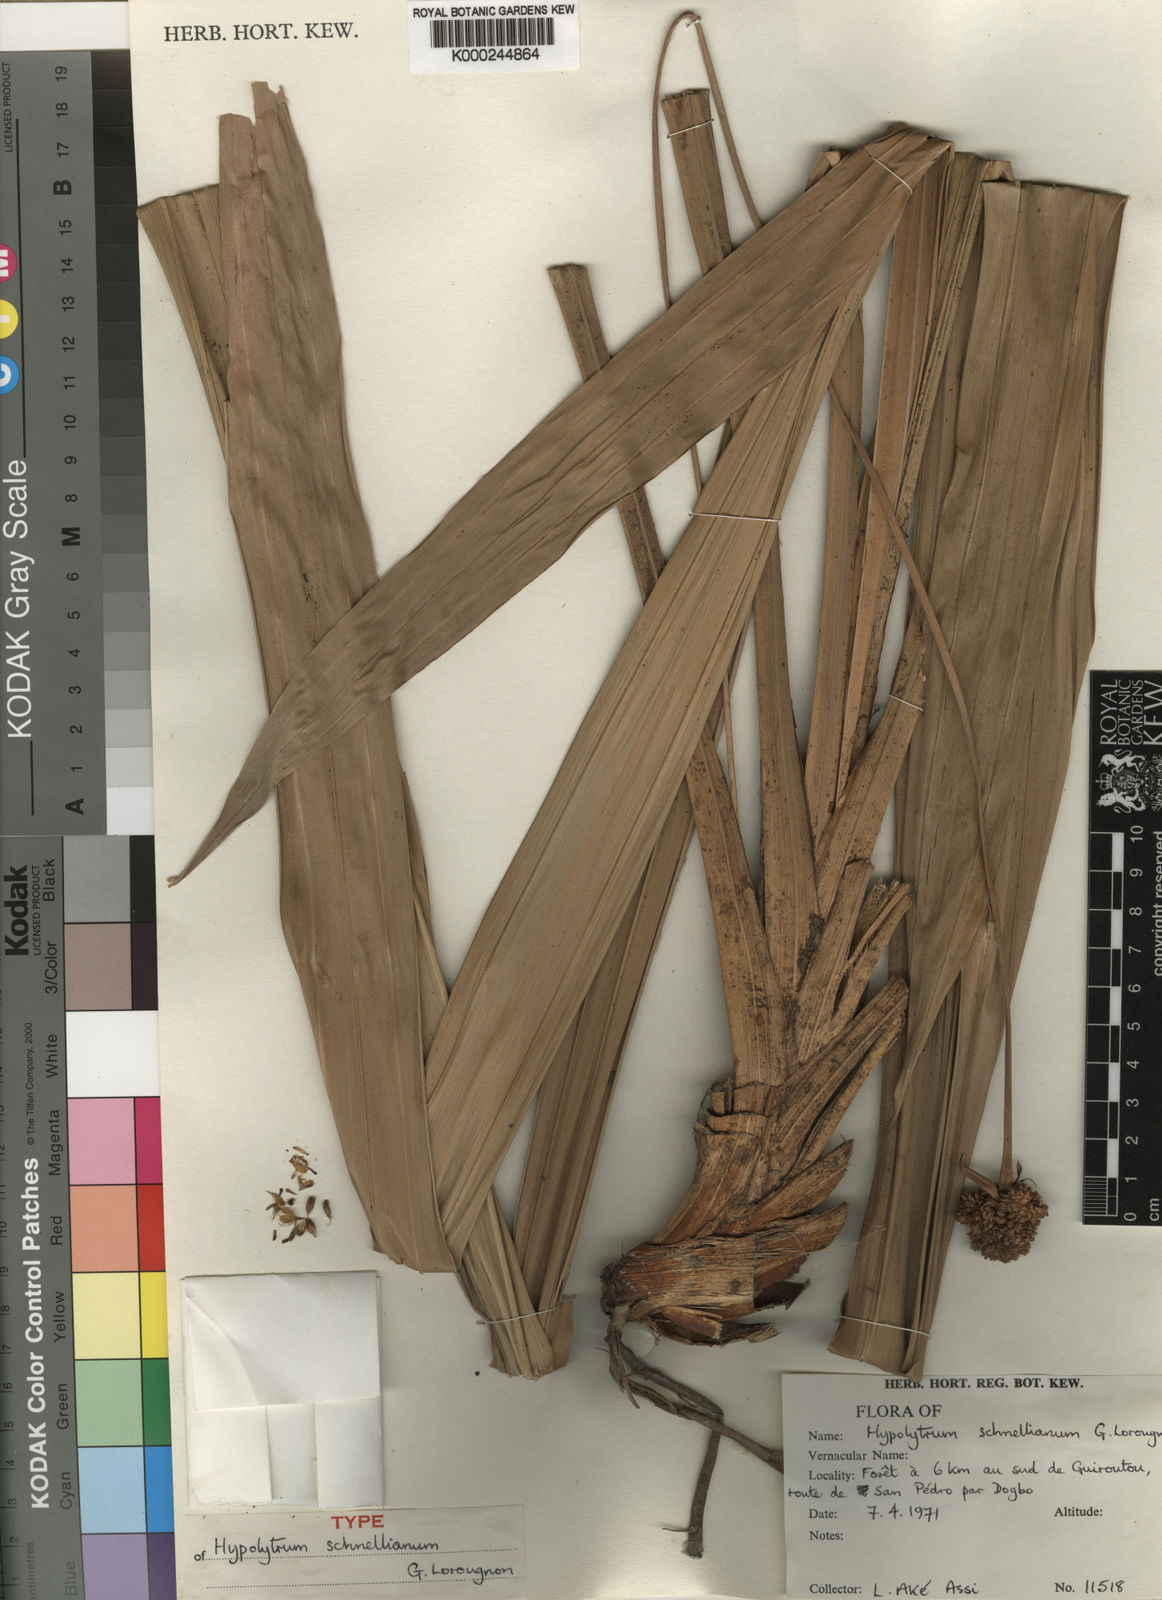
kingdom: Plantae
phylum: Tracheophyta
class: Liliopsida
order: Poales
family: Cyperaceae
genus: Hypolytrum
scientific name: Hypolytrum schnellianum
